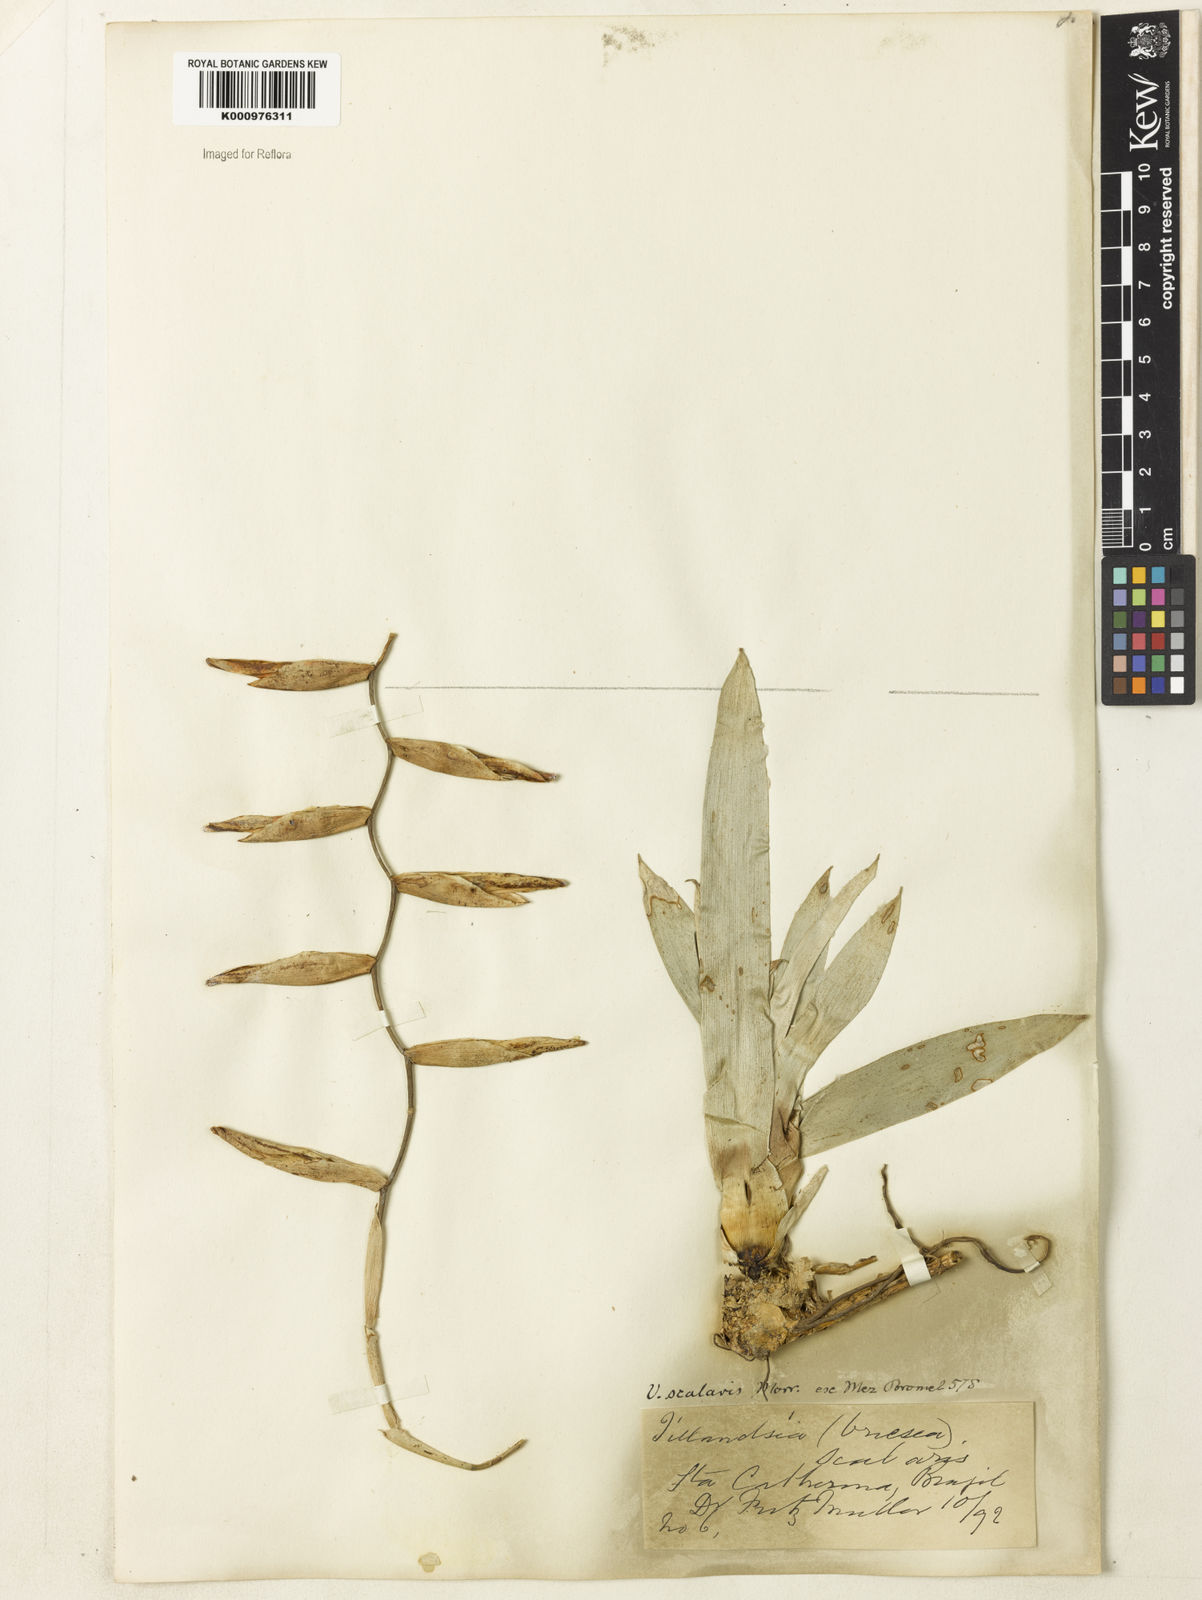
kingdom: Plantae
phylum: Tracheophyta
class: Liliopsida
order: Poales
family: Bromeliaceae
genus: Vriesea
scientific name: Vriesea scalaris
